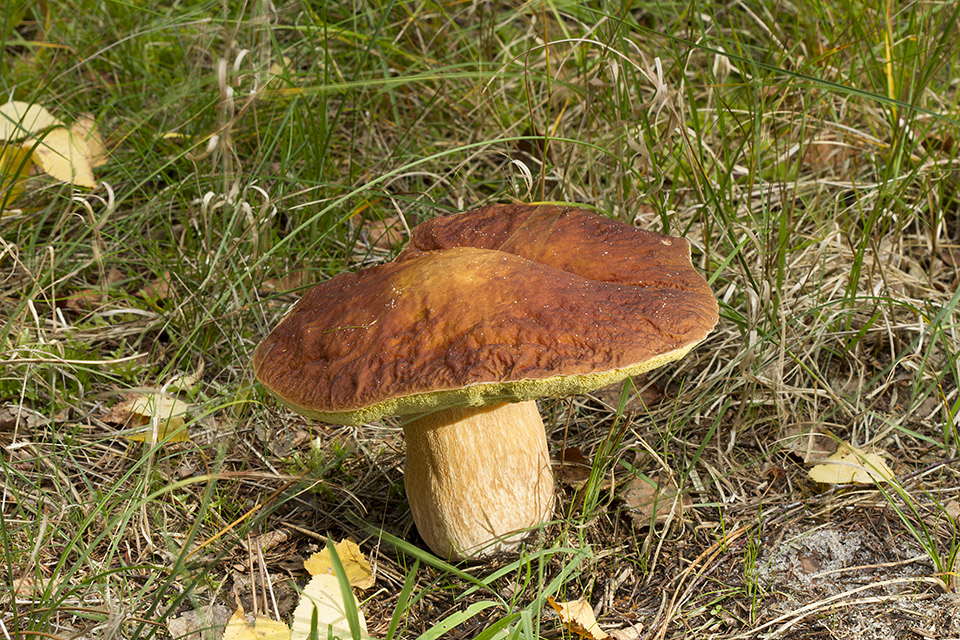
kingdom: Fungi
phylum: Basidiomycota
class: Agaricomycetes
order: Boletales
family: Boletaceae
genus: Boletus
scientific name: Boletus edulis
